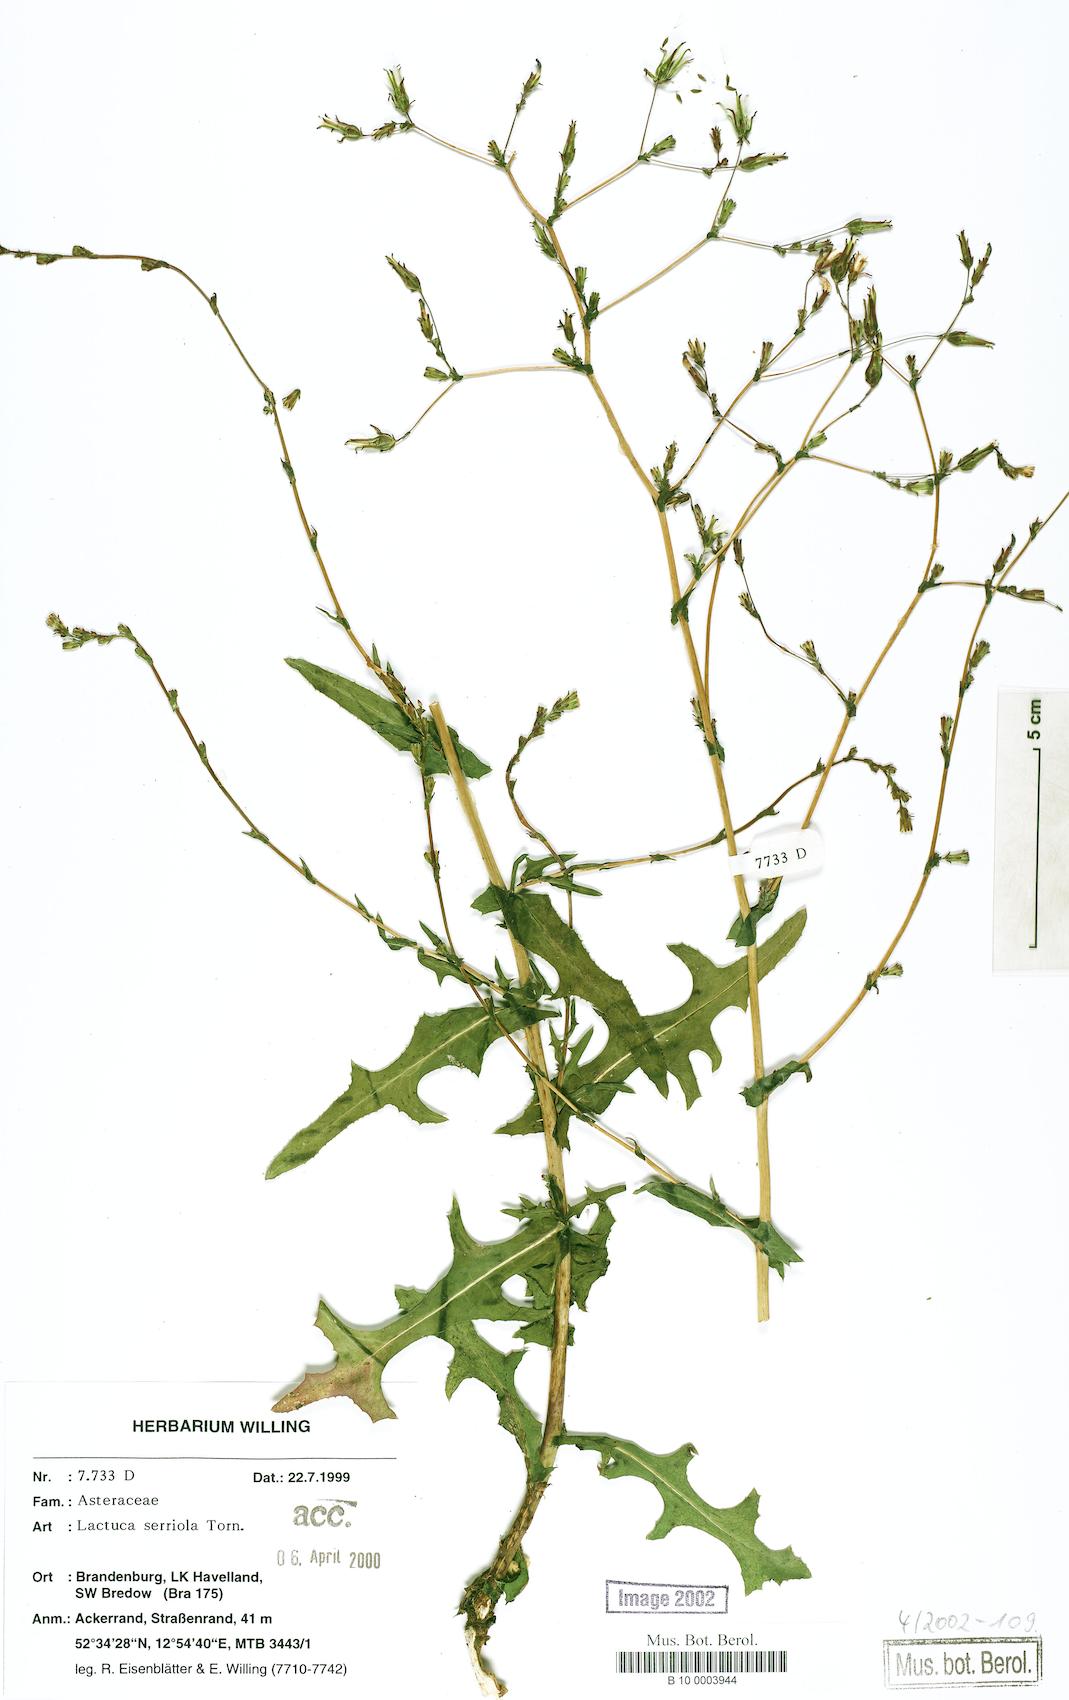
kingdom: Plantae
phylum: Tracheophyta
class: Magnoliopsida
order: Asterales
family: Asteraceae
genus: Lactuca
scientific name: Lactuca serriola
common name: Prickly lettuce
